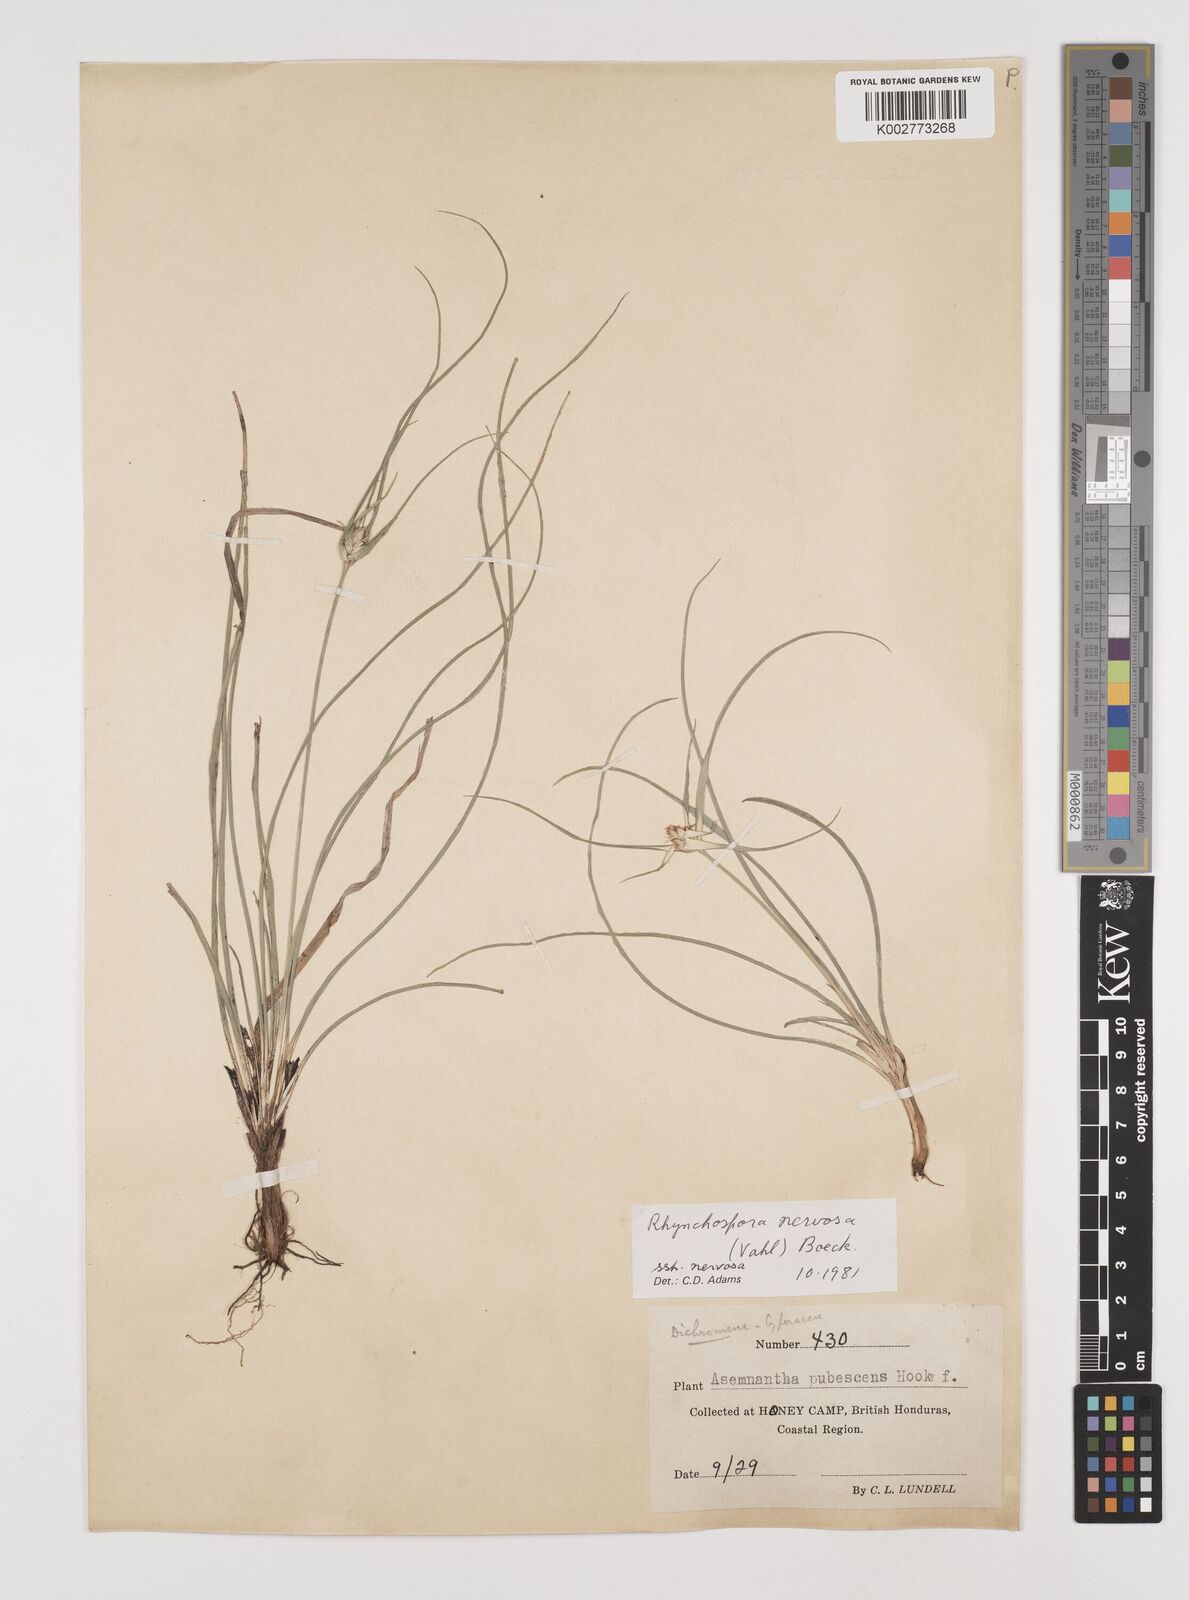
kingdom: Plantae
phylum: Tracheophyta
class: Liliopsida
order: Poales
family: Cyperaceae
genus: Rhynchospora
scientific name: Rhynchospora nervosa
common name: Star sedge
